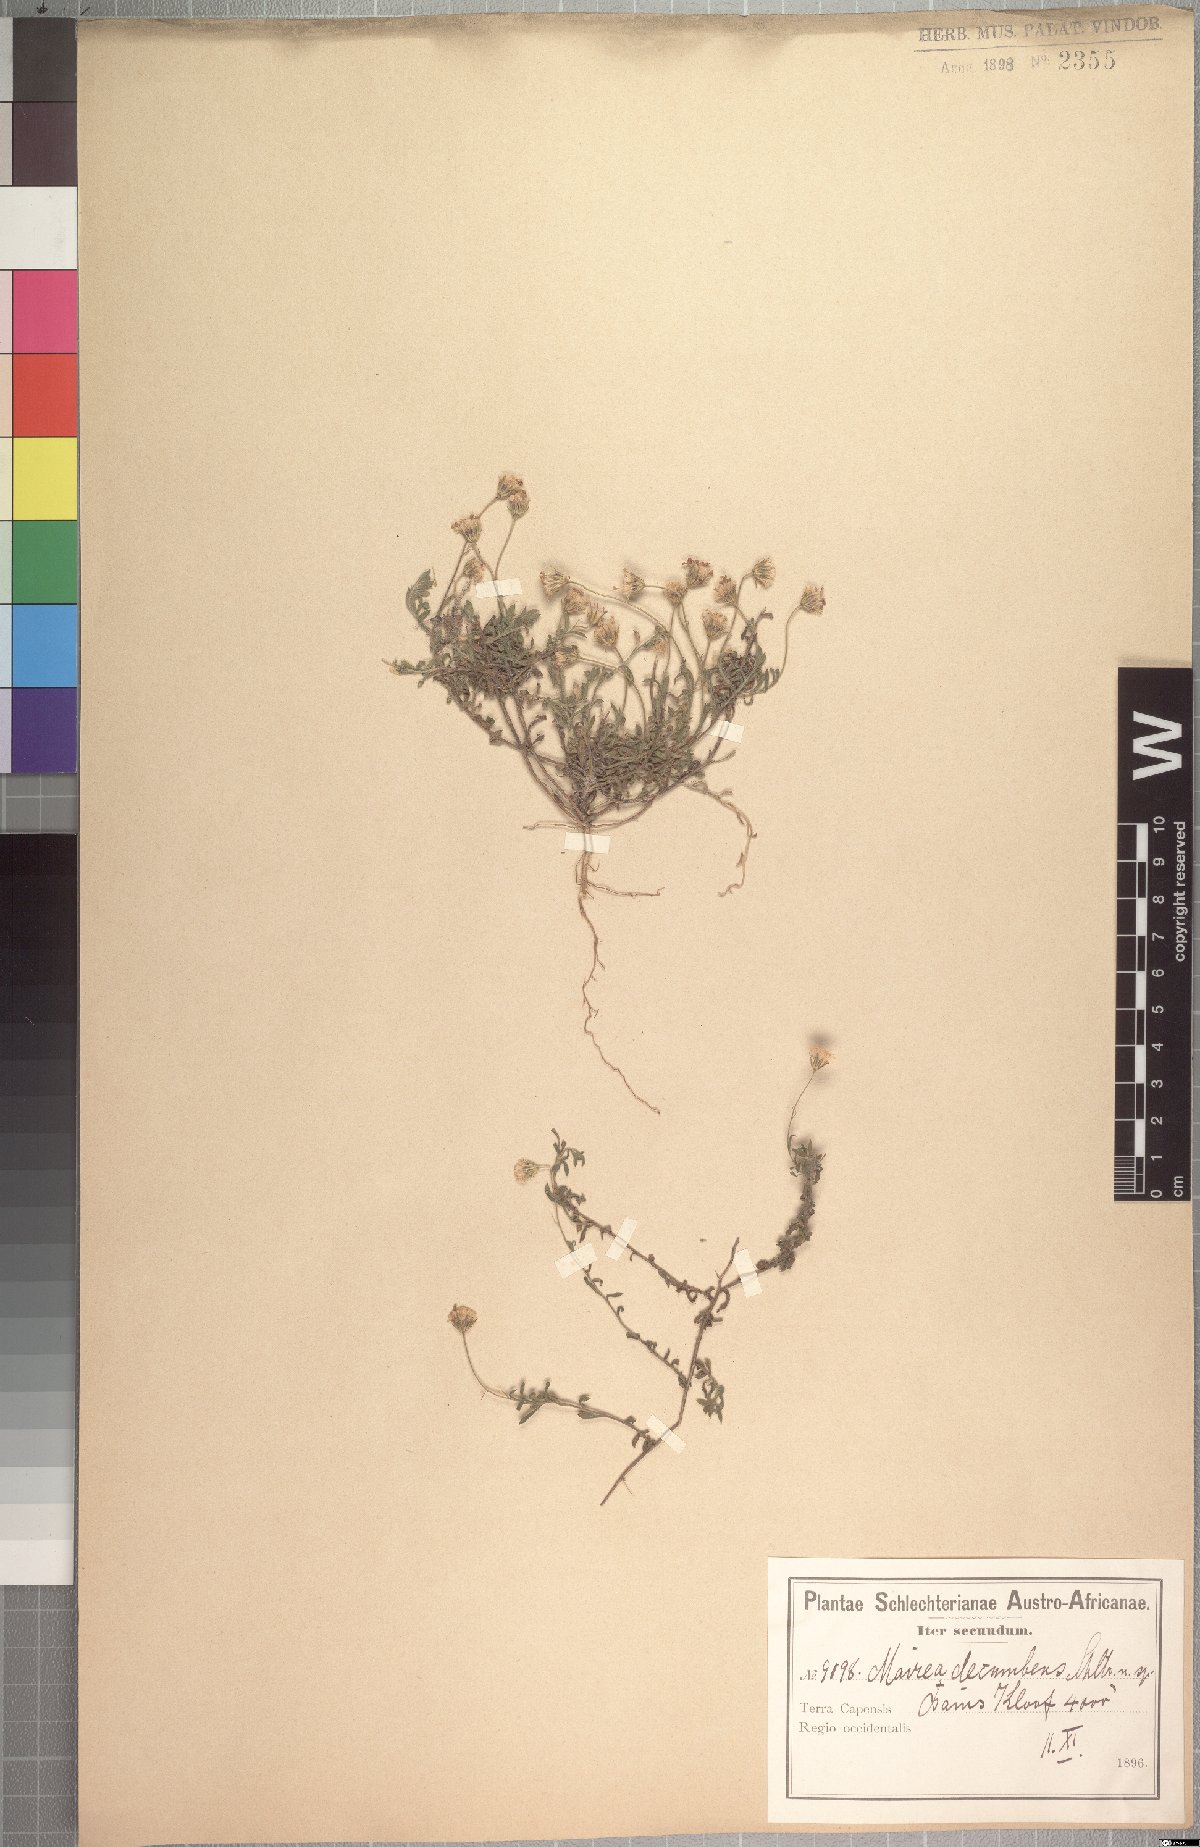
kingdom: Plantae
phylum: Tracheophyta
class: Magnoliopsida
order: Asterales
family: Asteraceae
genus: Zyrphelis
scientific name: Zyrphelis decumbens
